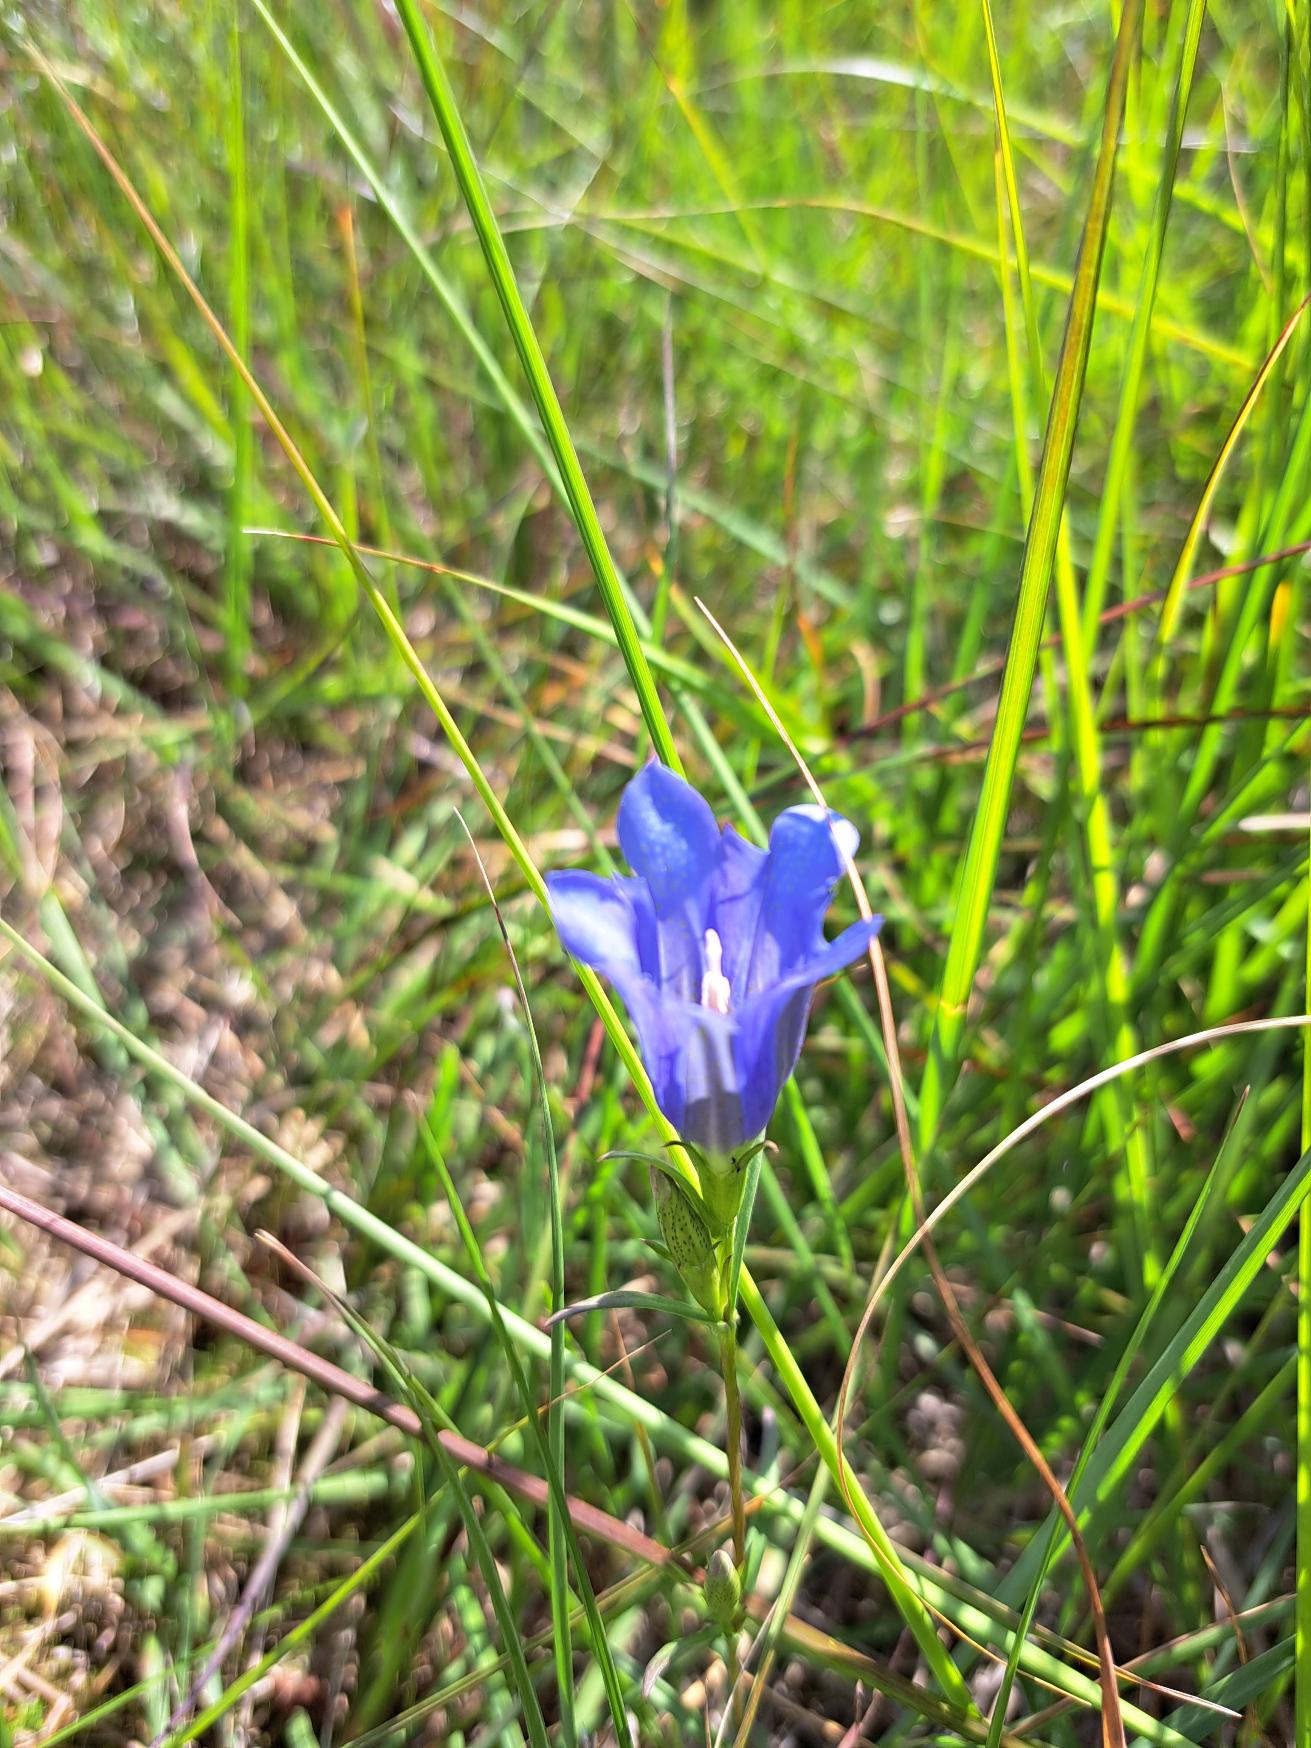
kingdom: Plantae
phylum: Tracheophyta
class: Magnoliopsida
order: Gentianales
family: Gentianaceae
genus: Gentiana
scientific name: Gentiana pneumonanthe
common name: Klokke-ensian
